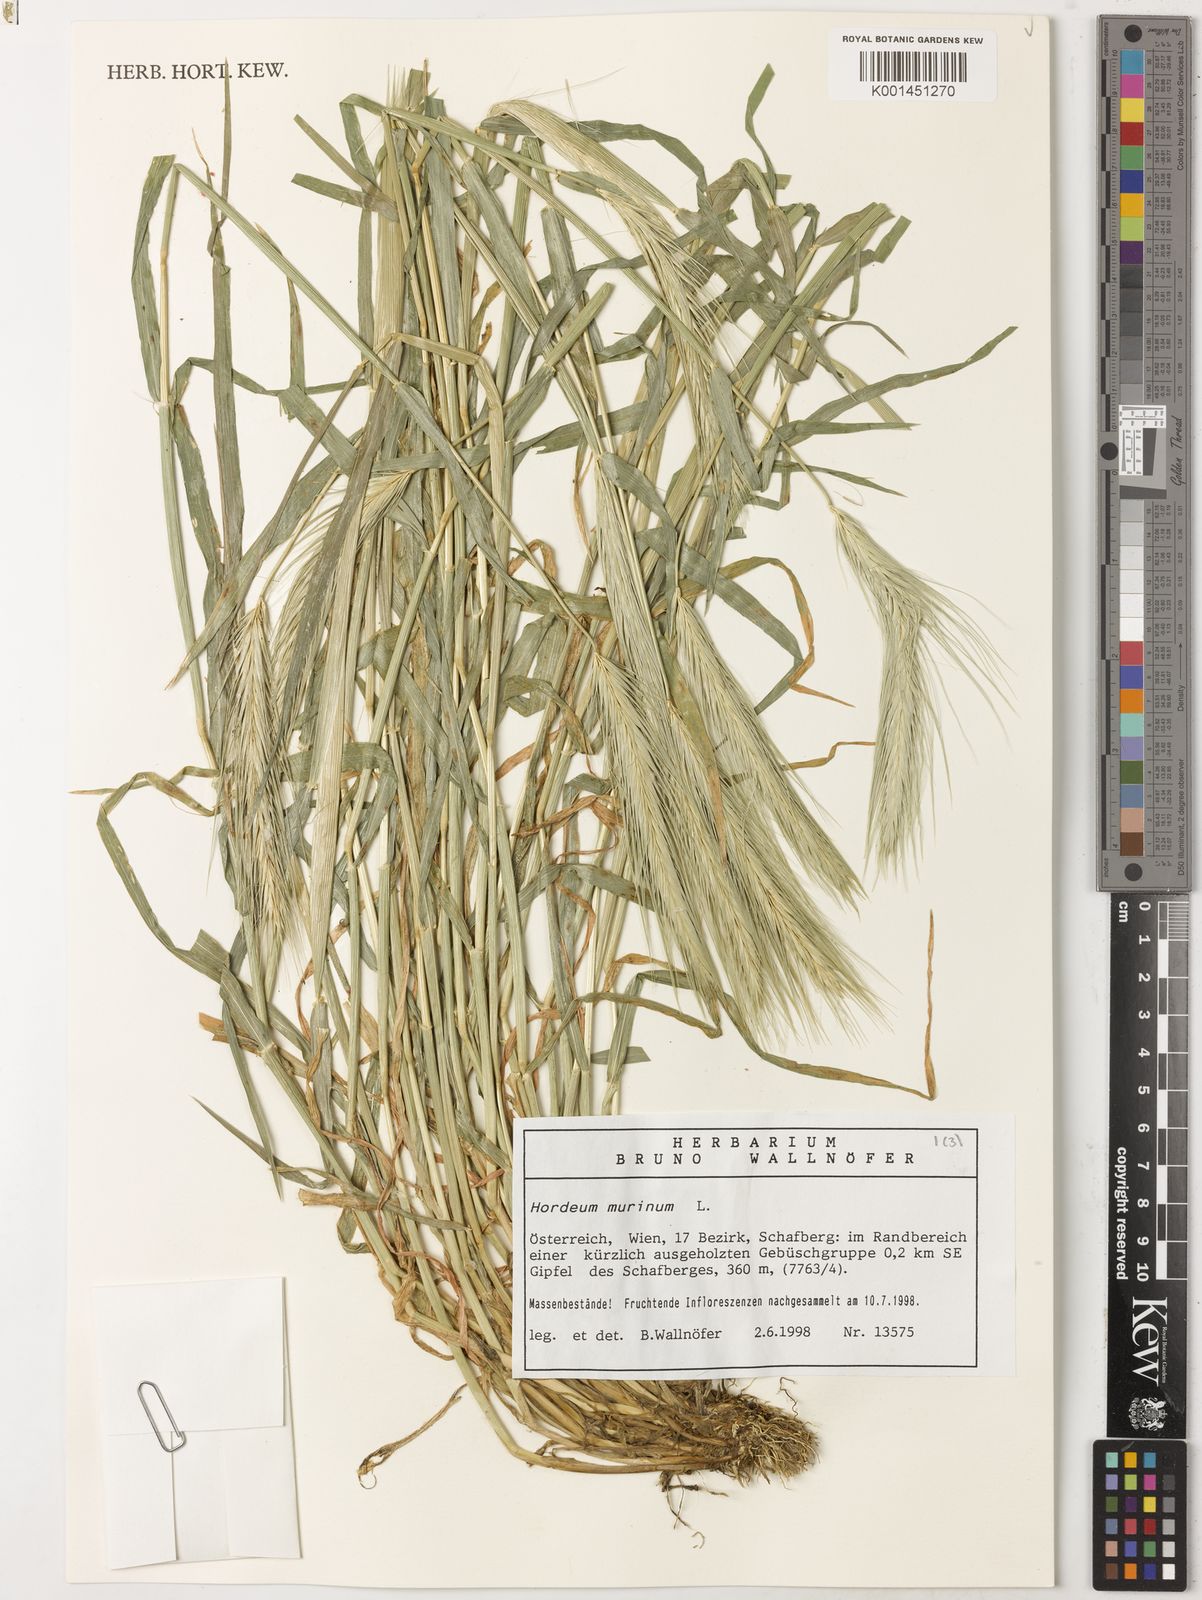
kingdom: Plantae
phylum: Tracheophyta
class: Liliopsida
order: Poales
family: Poaceae
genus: Hordeum
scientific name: Hordeum murinum
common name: Wall barley
